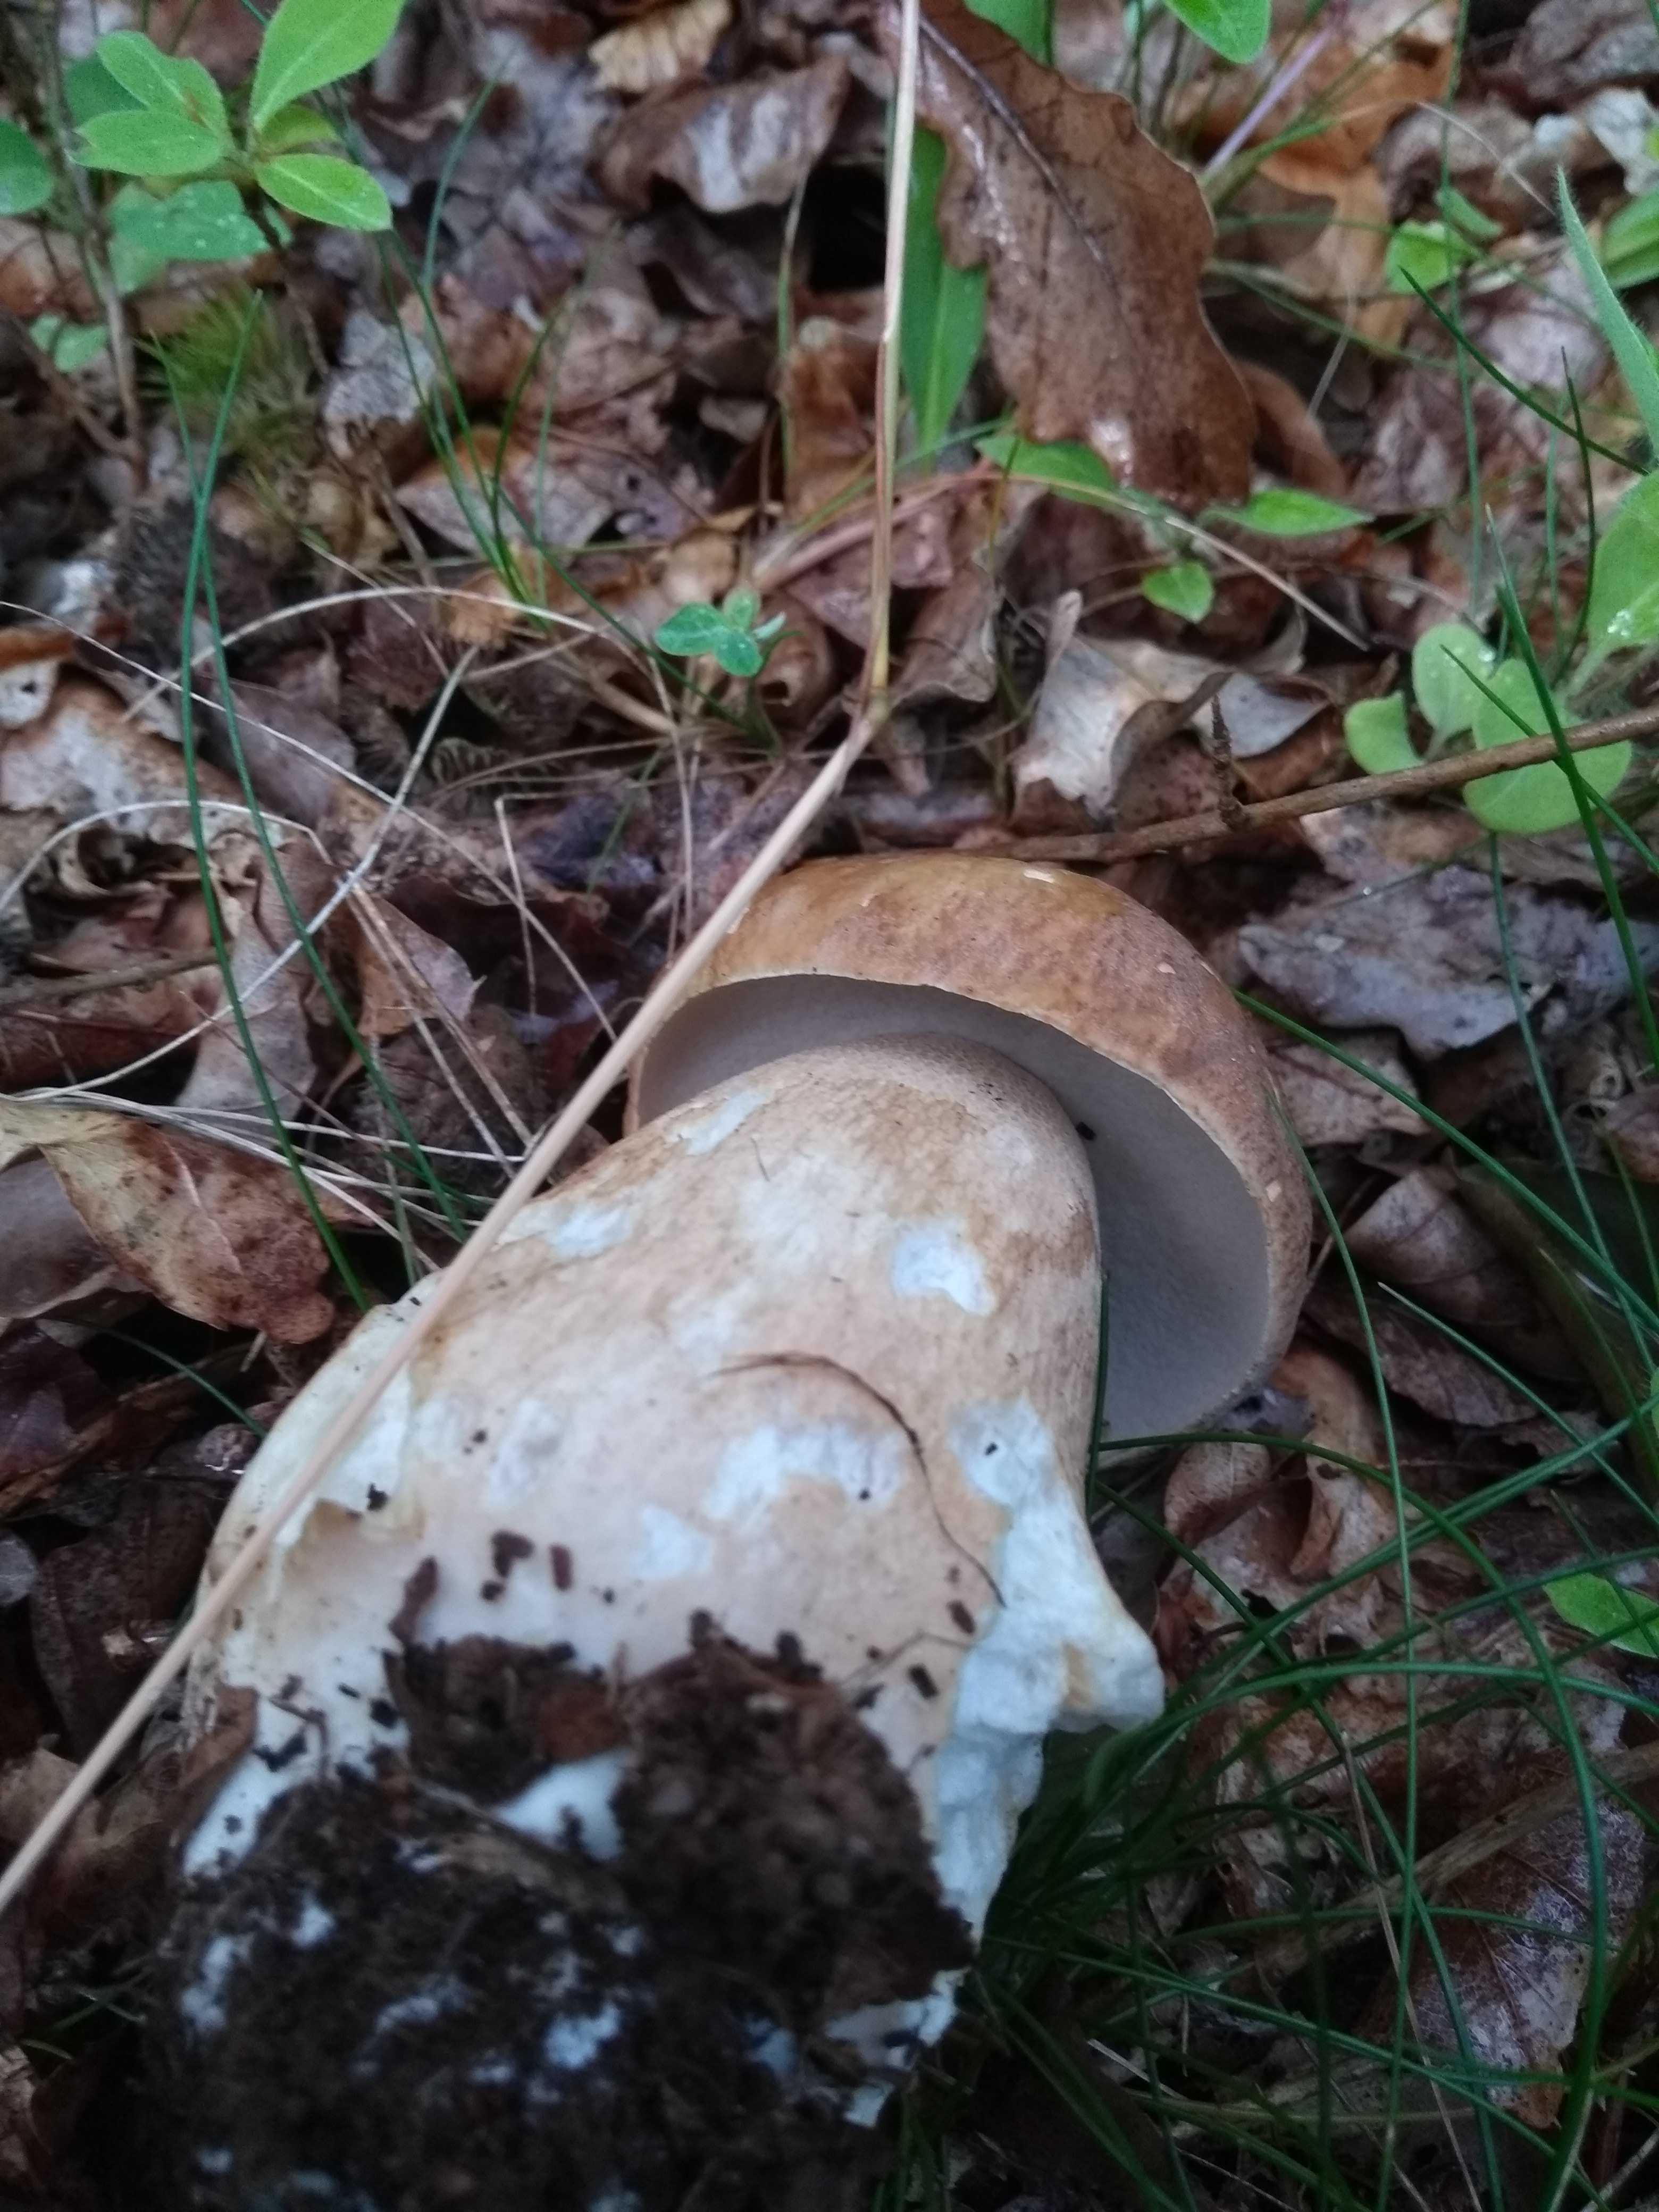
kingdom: Fungi
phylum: Basidiomycota
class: Agaricomycetes
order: Boletales
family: Boletaceae
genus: Boletus
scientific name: Boletus reticulatus
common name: sommer-rørhat
